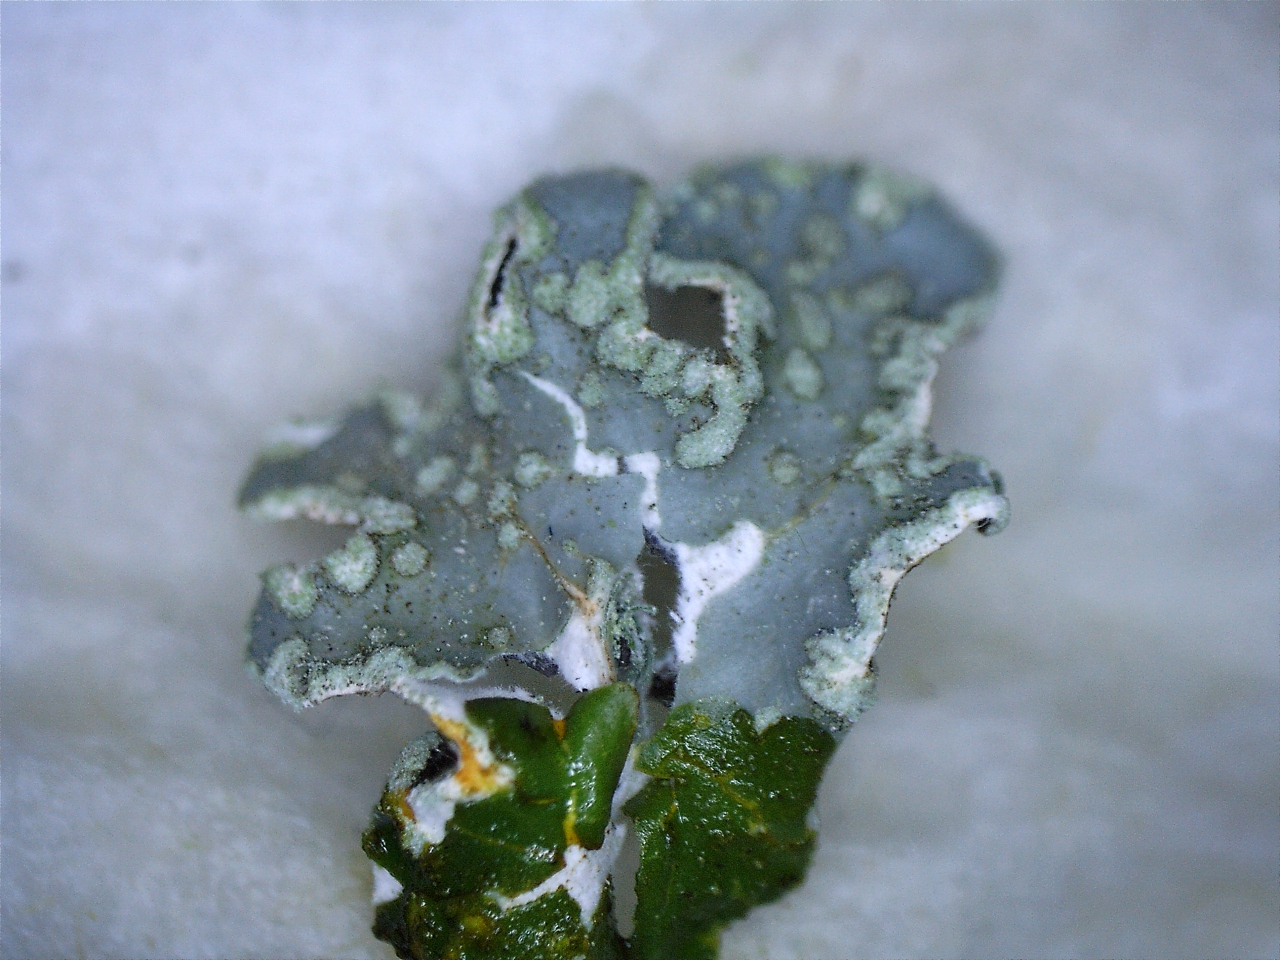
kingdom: Fungi
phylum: Ascomycota
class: Lecanoromycetes
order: Lecanorales
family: Parmeliaceae
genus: Parmelia
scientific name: Parmelia sulcata
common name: rynket skållav
